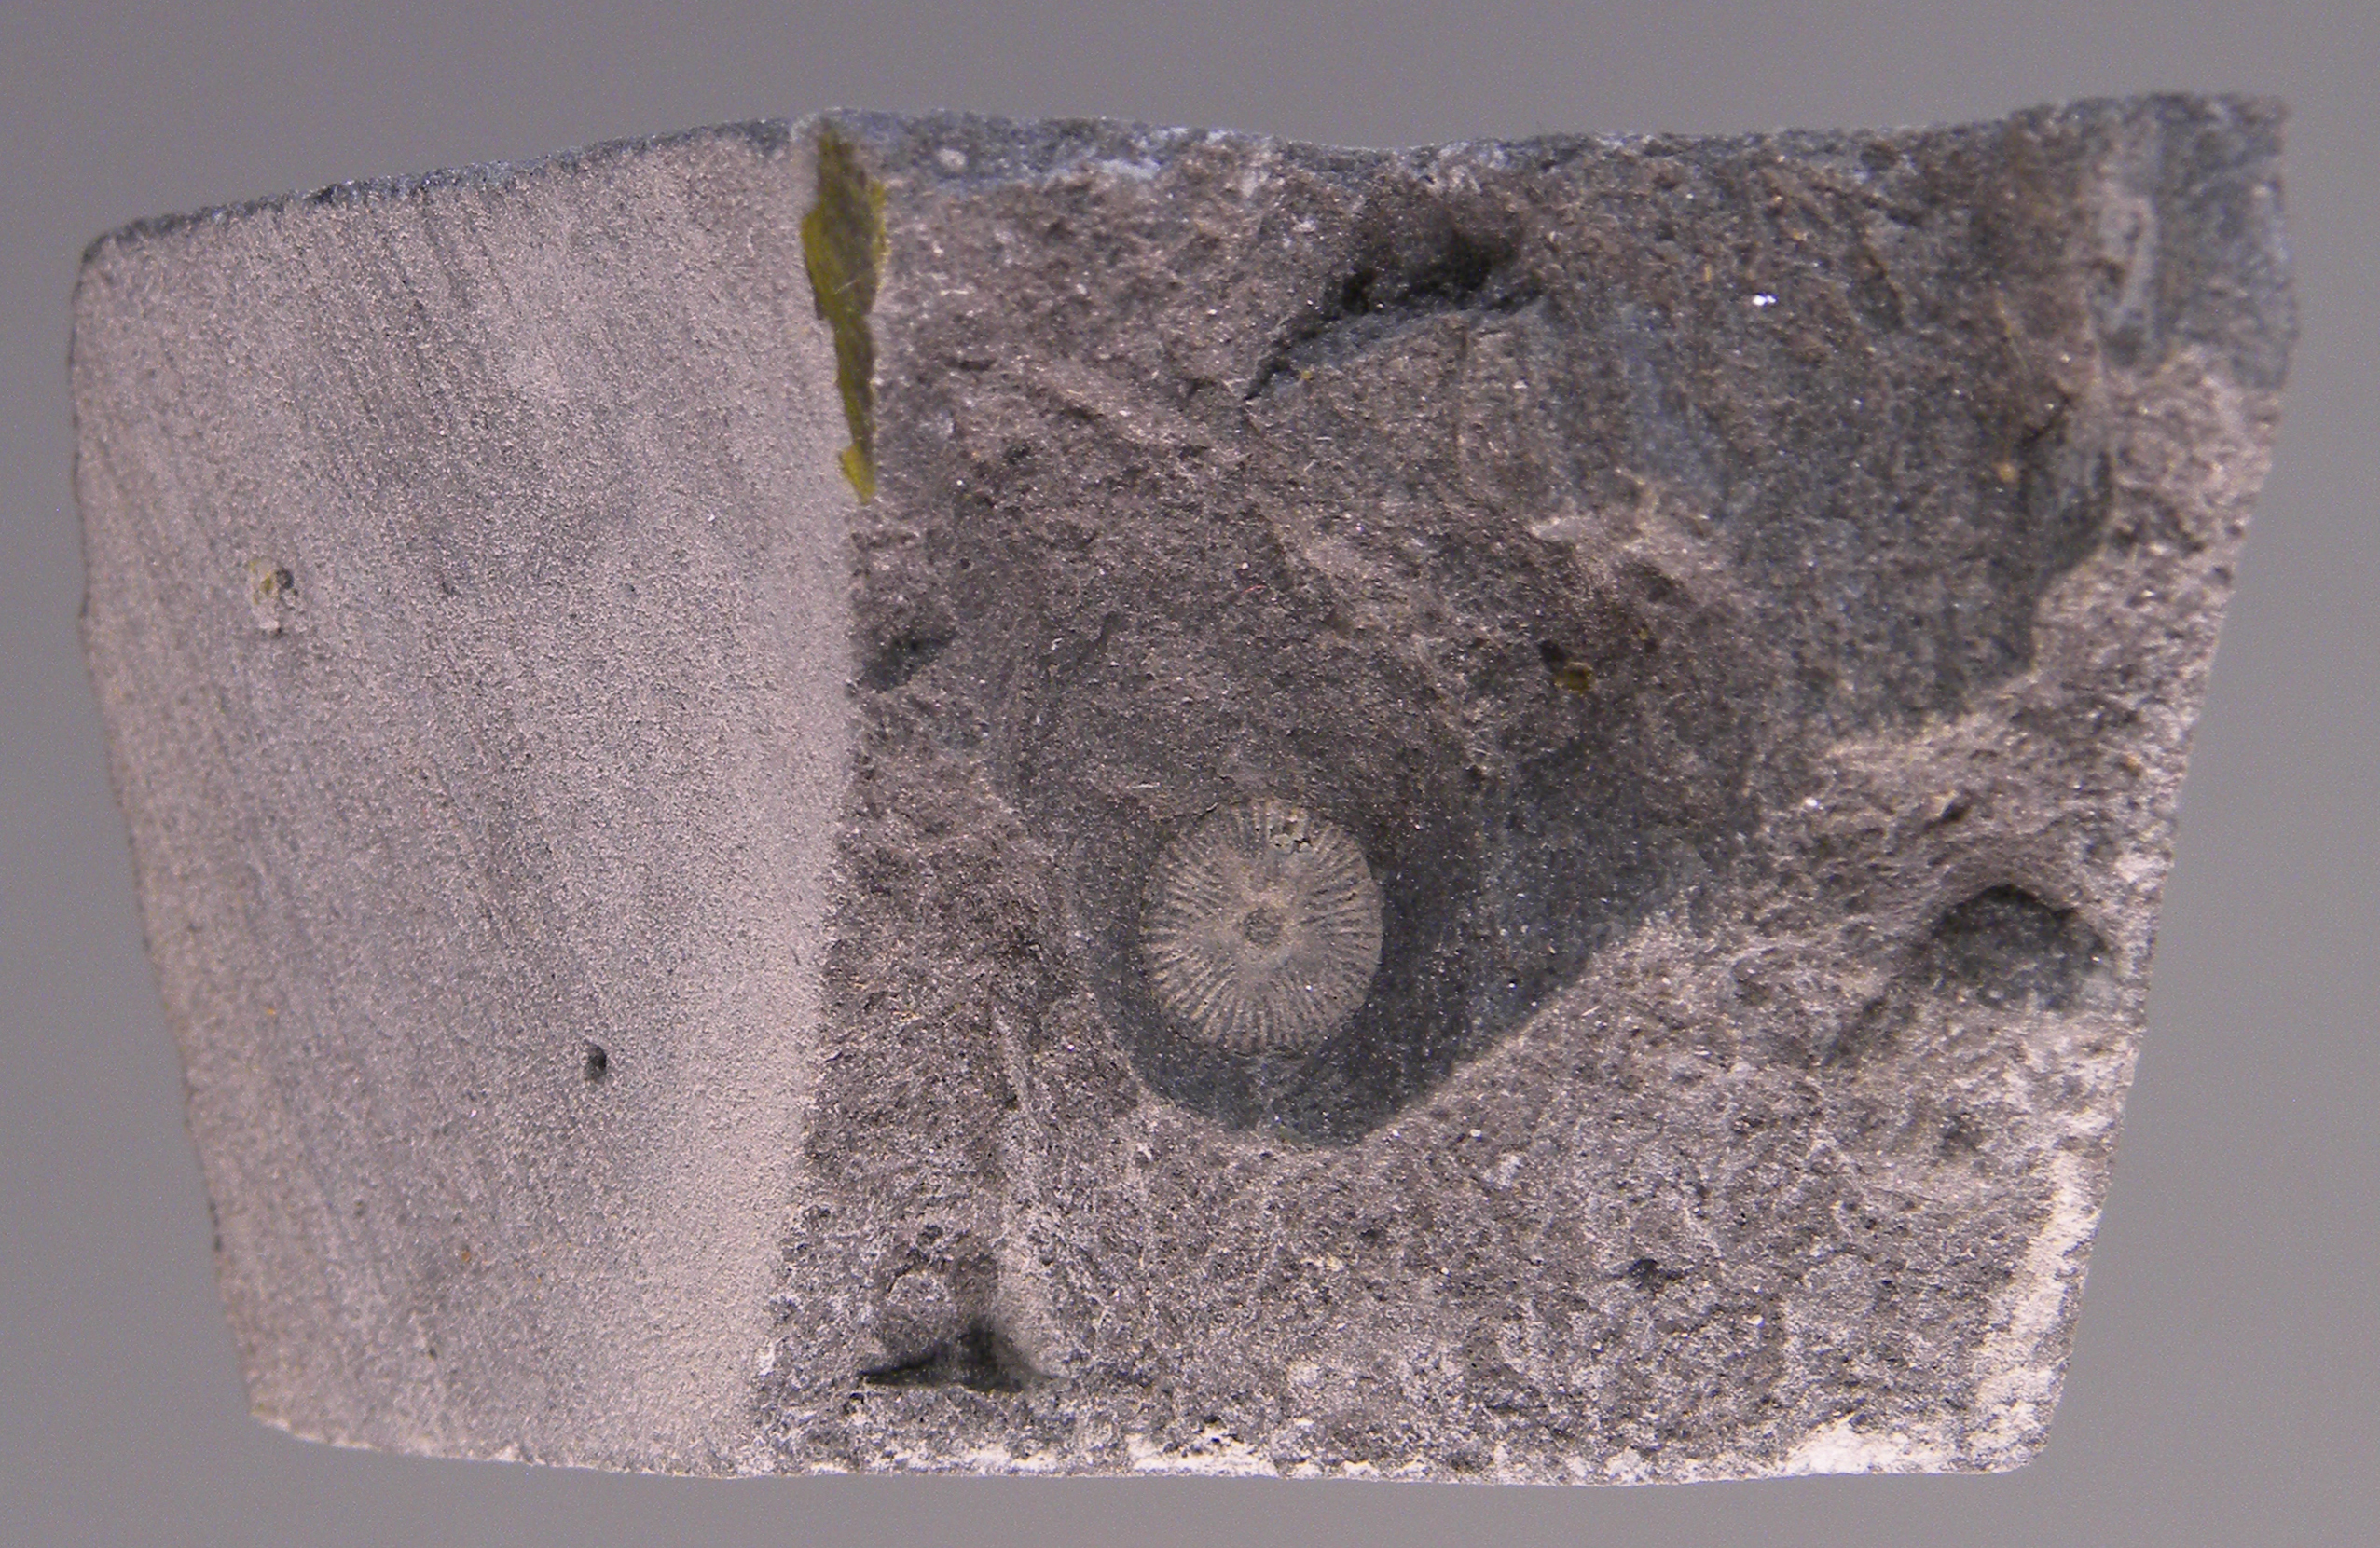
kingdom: Animalia
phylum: Echinodermata
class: Crinoidea
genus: Facetocrinus
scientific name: Facetocrinus
